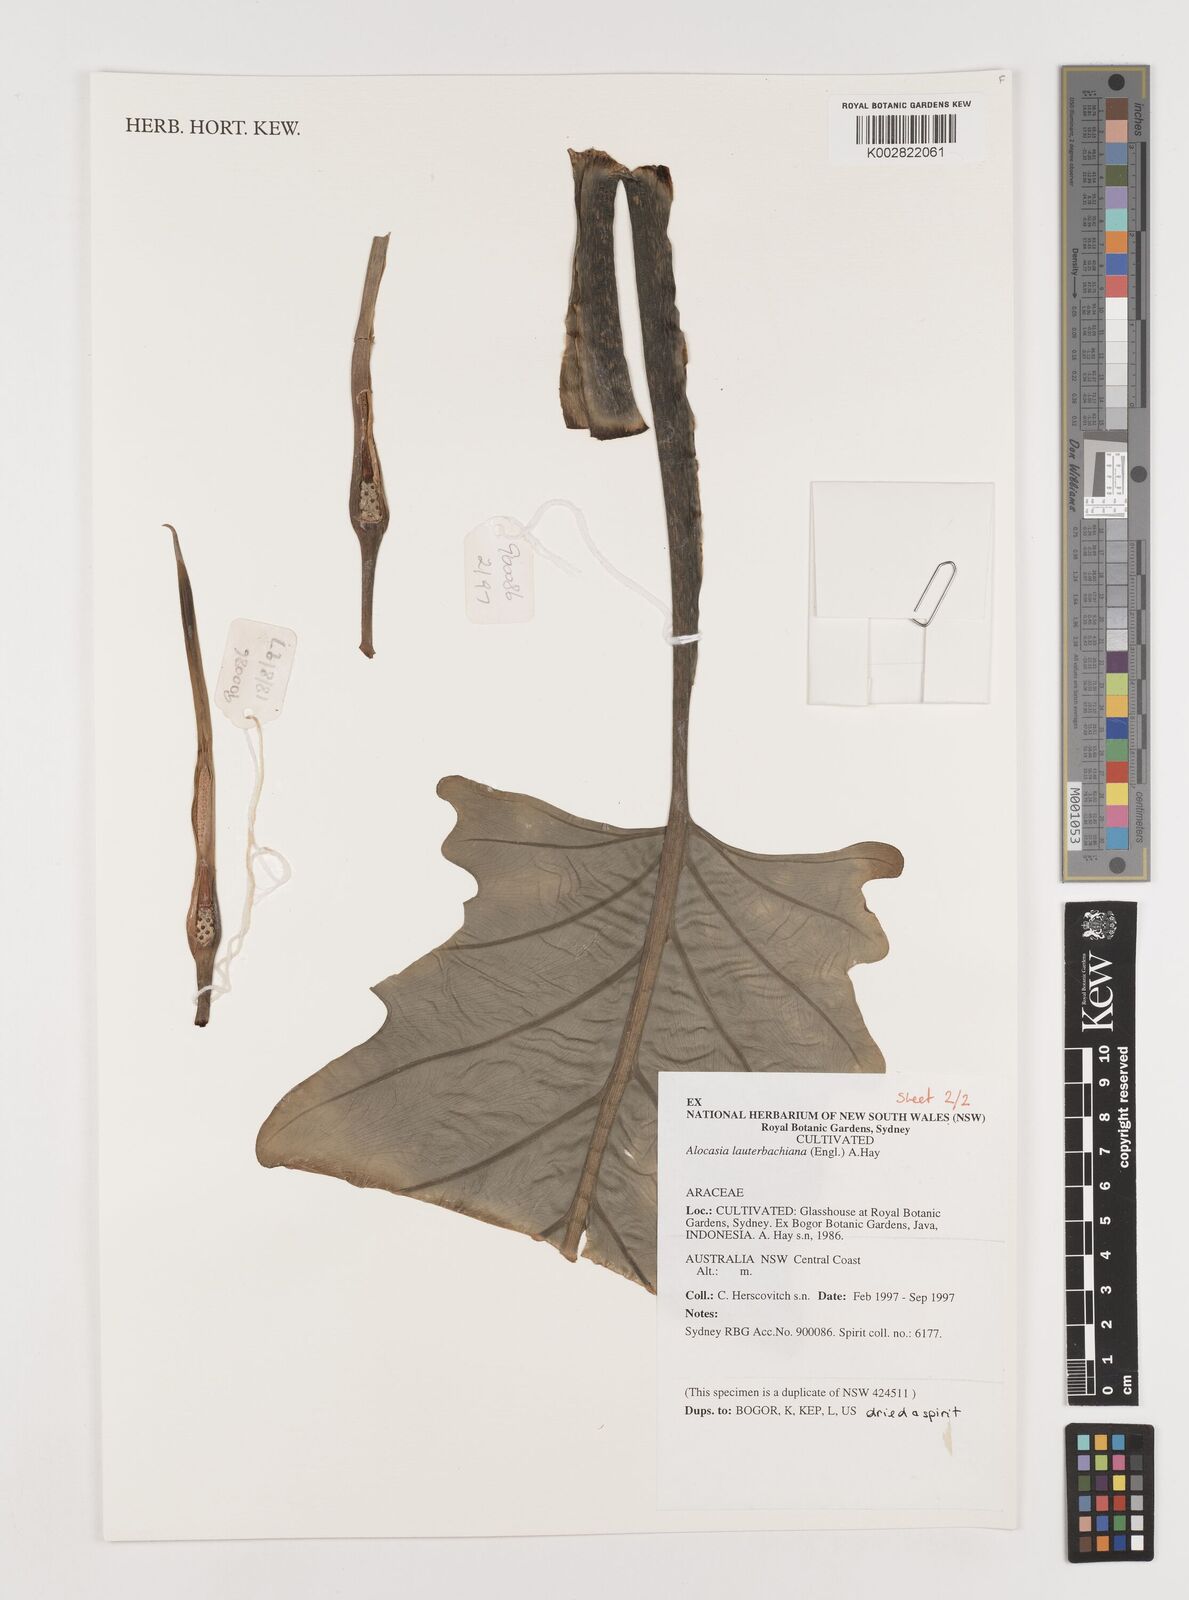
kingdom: Plantae
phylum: Tracheophyta
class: Liliopsida
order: Alismatales
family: Araceae
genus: Alocasia
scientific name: Alocasia lauterbachiana
